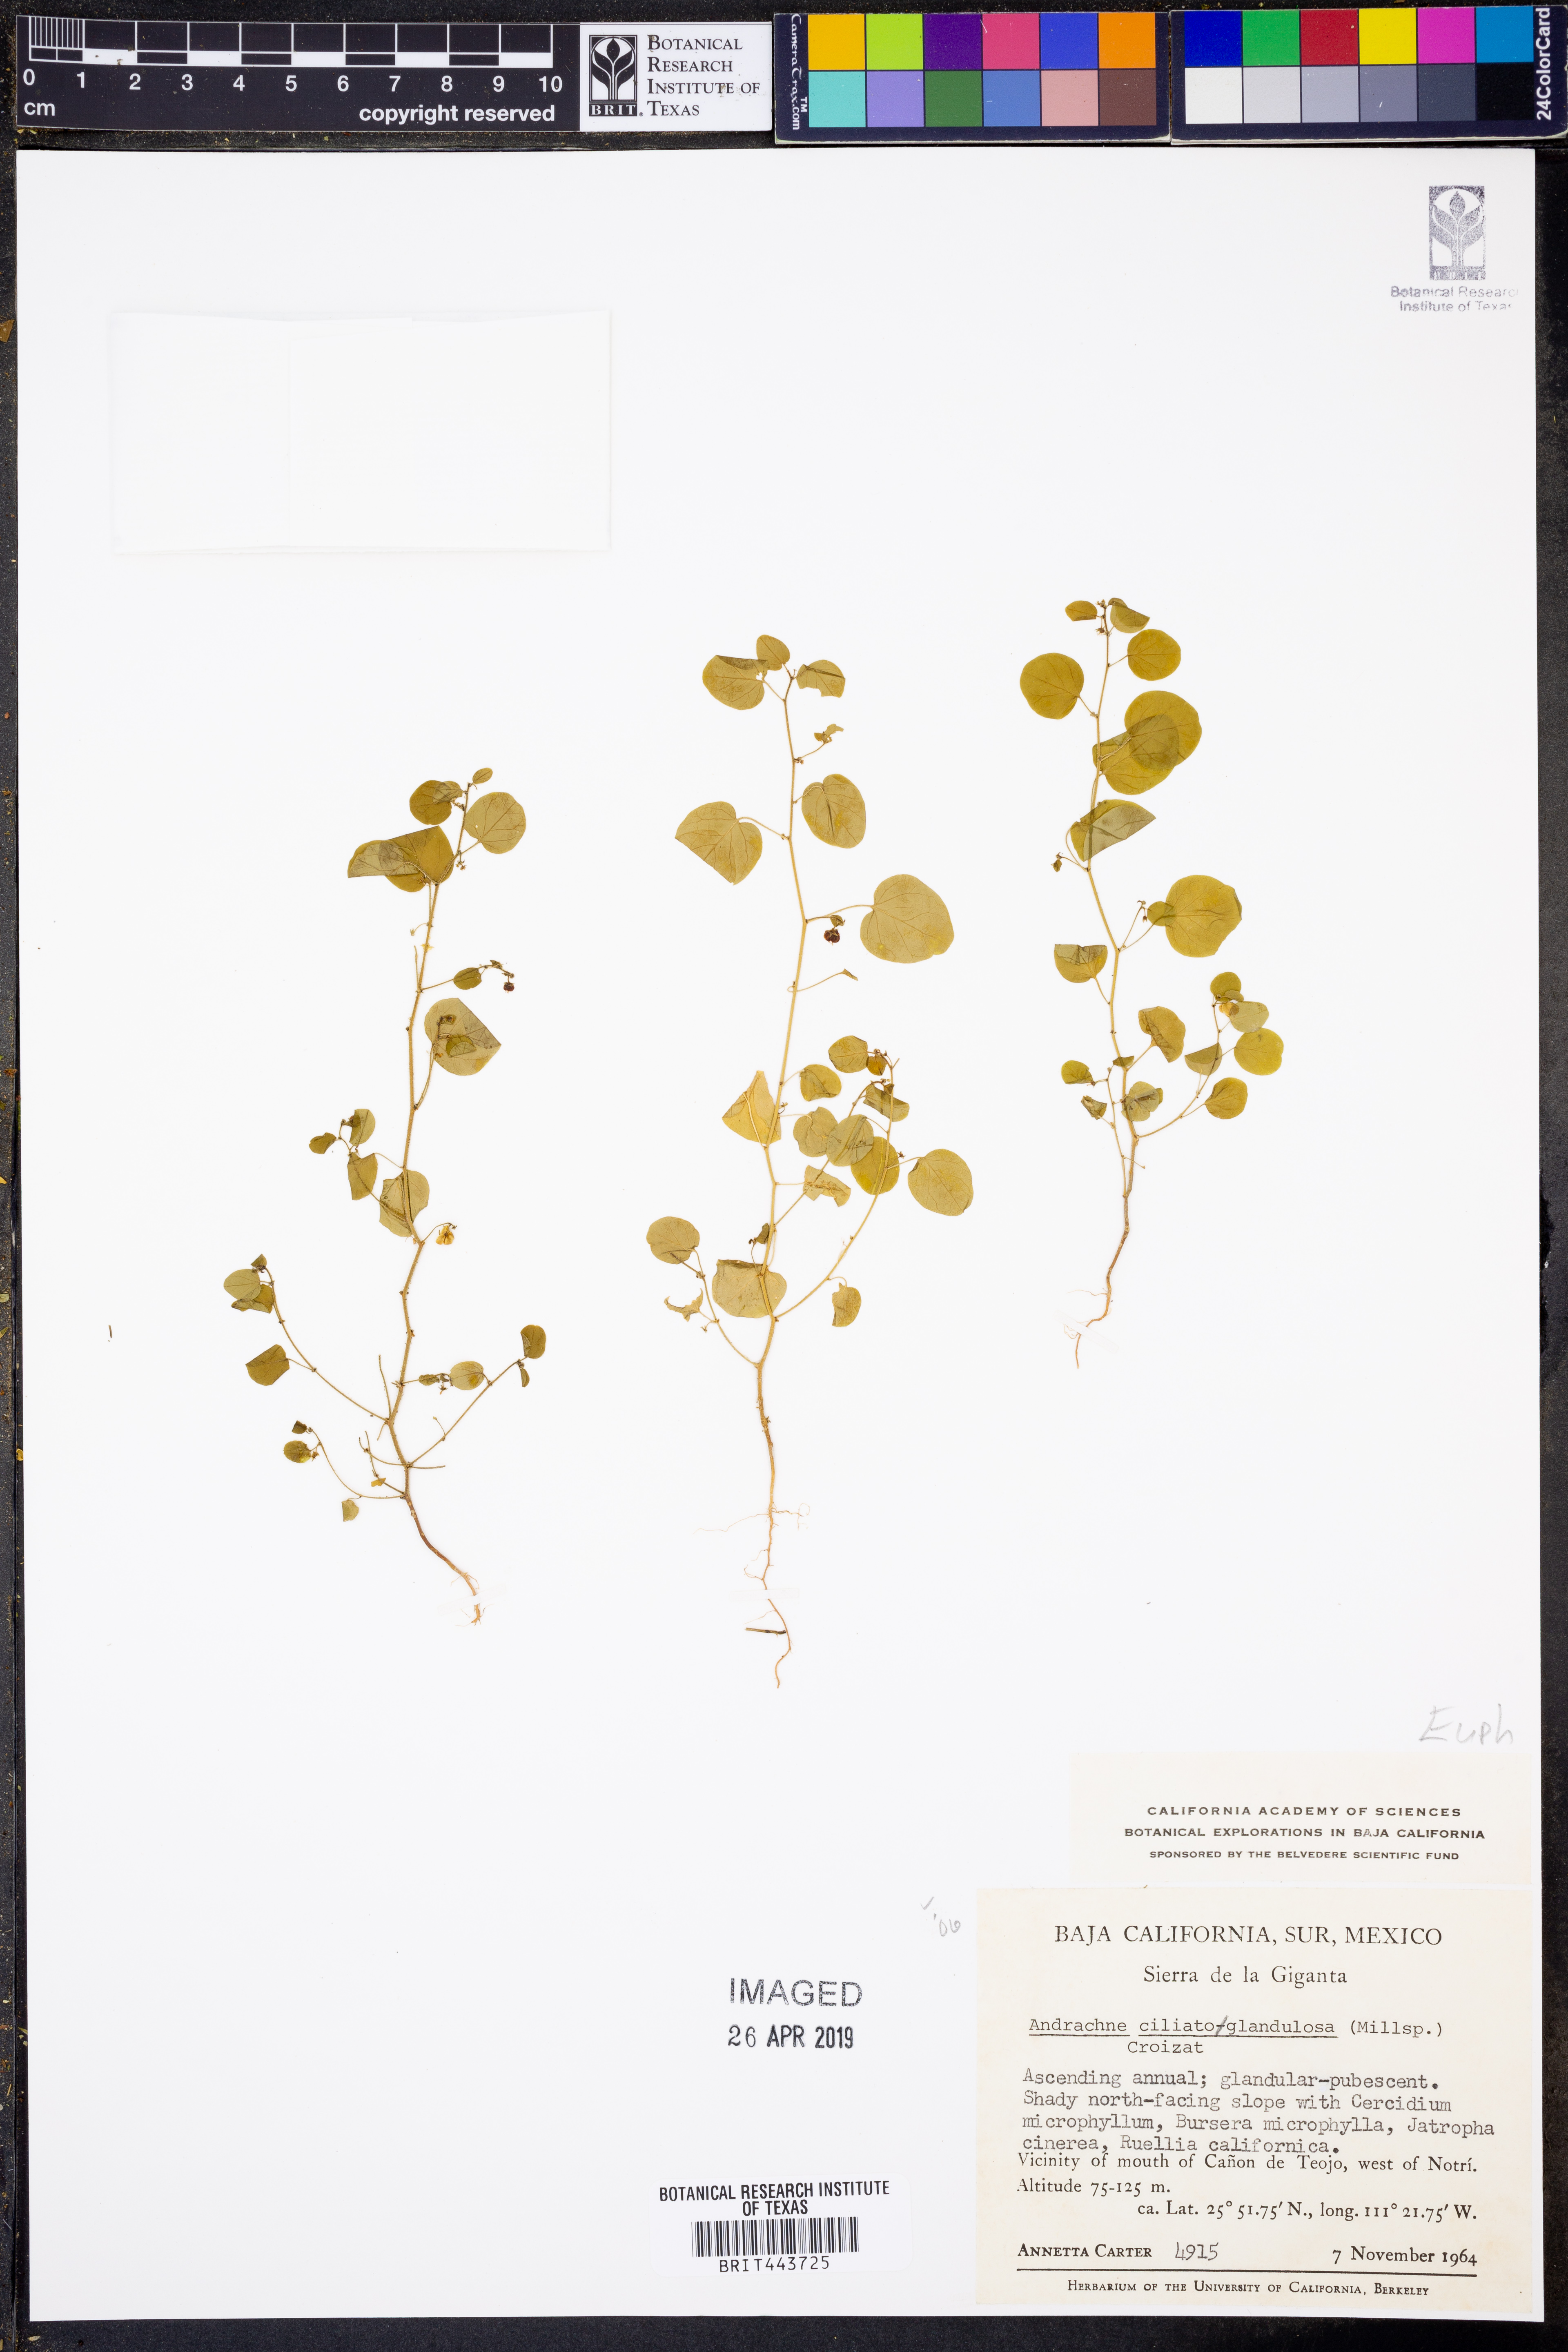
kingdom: Plantae
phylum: Tracheophyta
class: Magnoliopsida
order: Malpighiales
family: Phyllanthaceae
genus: Andrachne
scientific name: Andrachne microphylla
